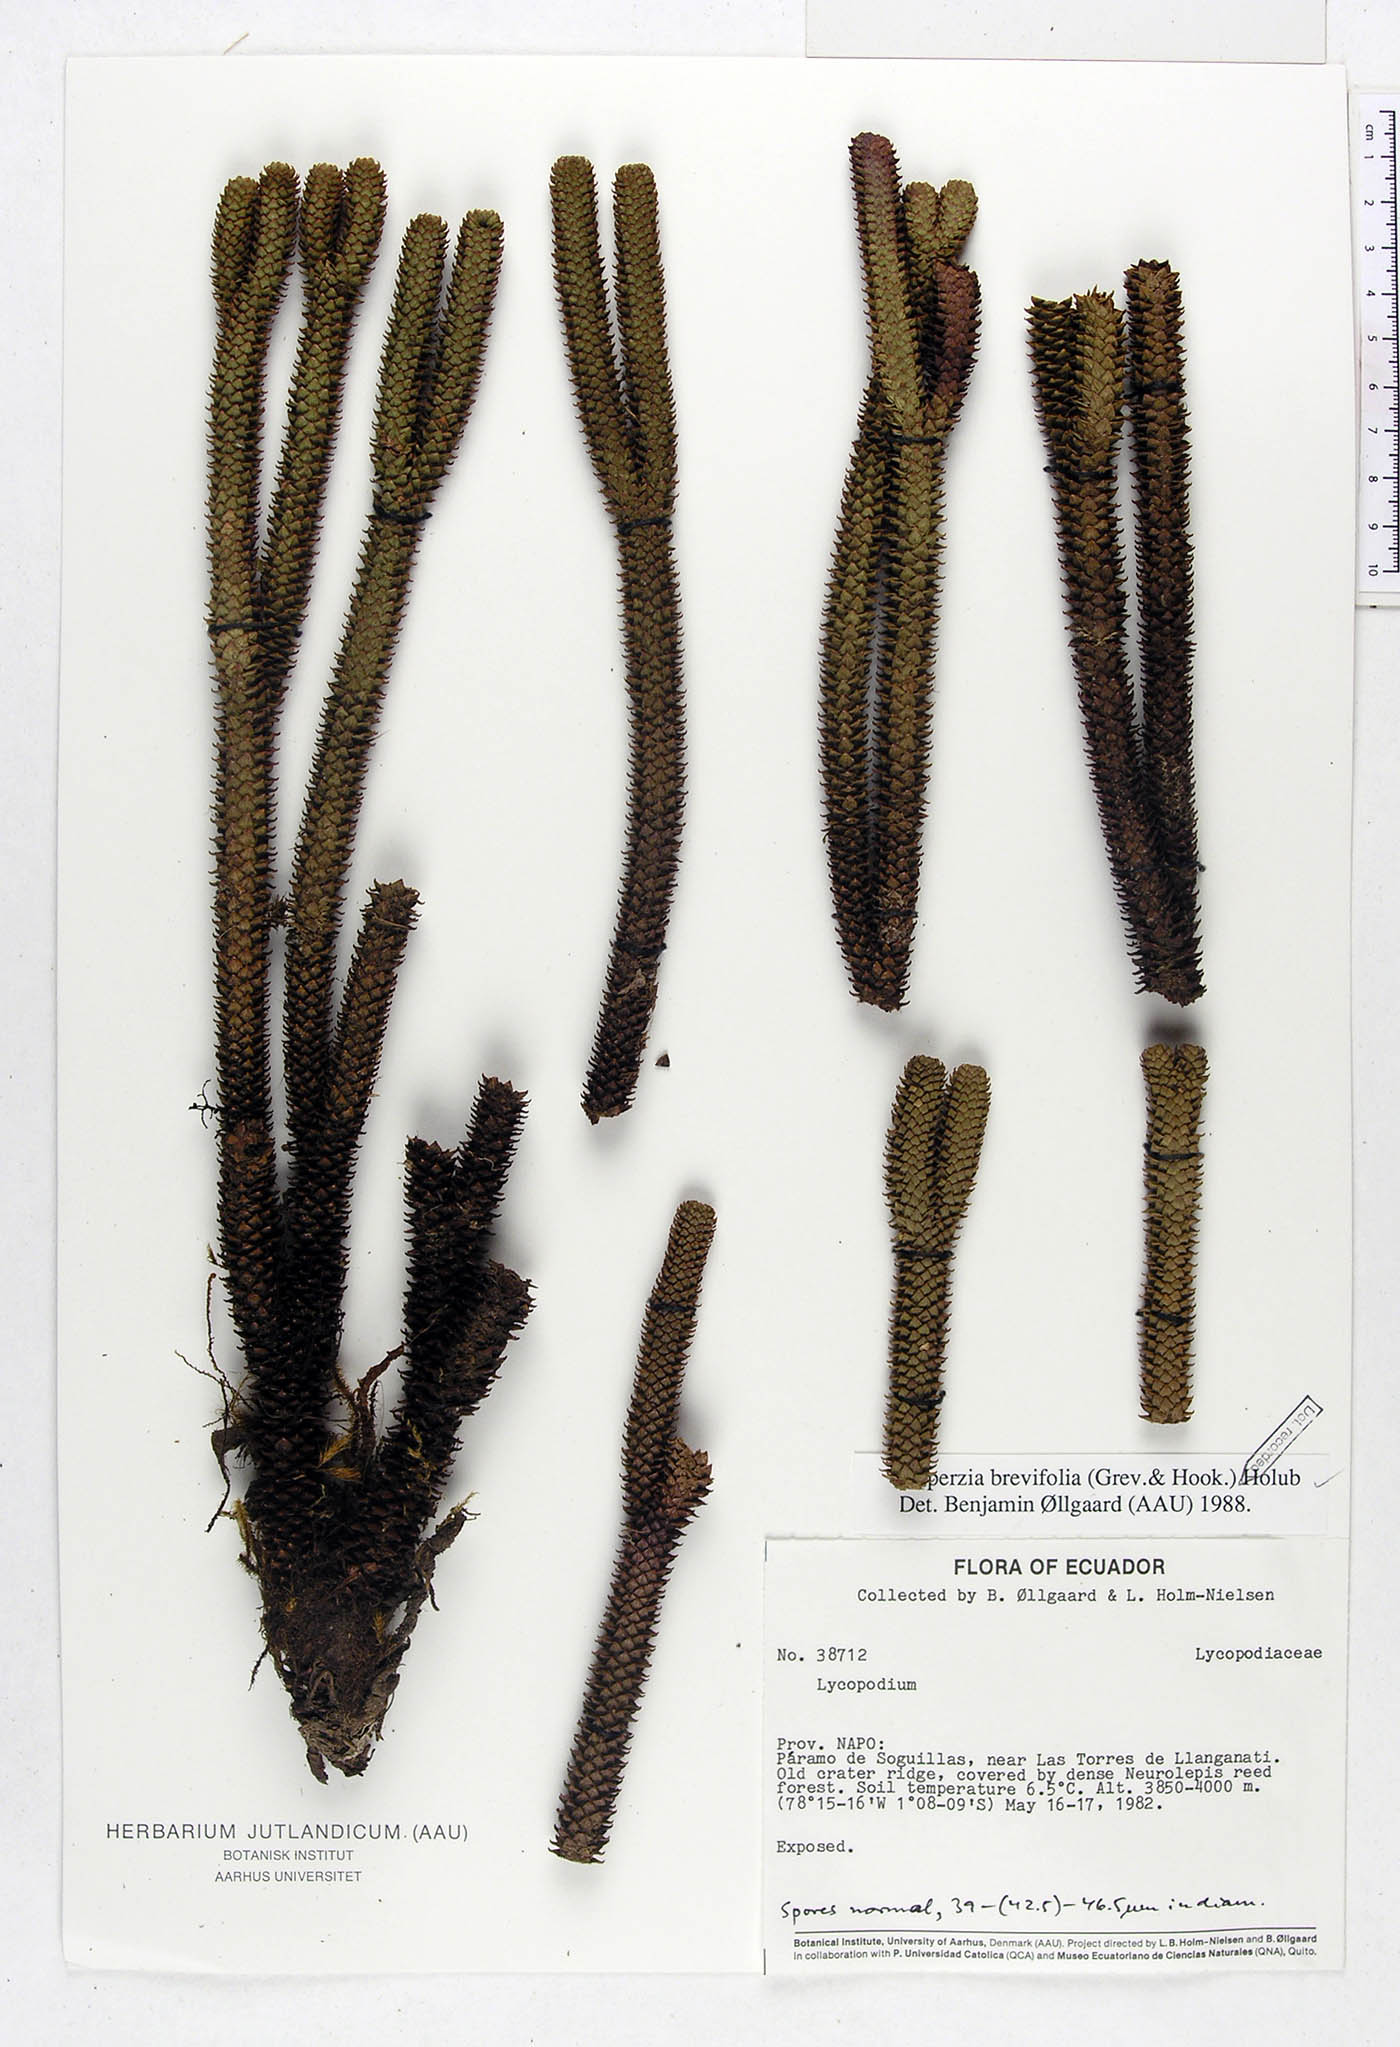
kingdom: Plantae
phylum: Tracheophyta
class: Lycopodiopsida
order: Lycopodiales
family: Lycopodiaceae
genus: Phlegmariurus
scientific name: Phlegmariurus brevifolius
